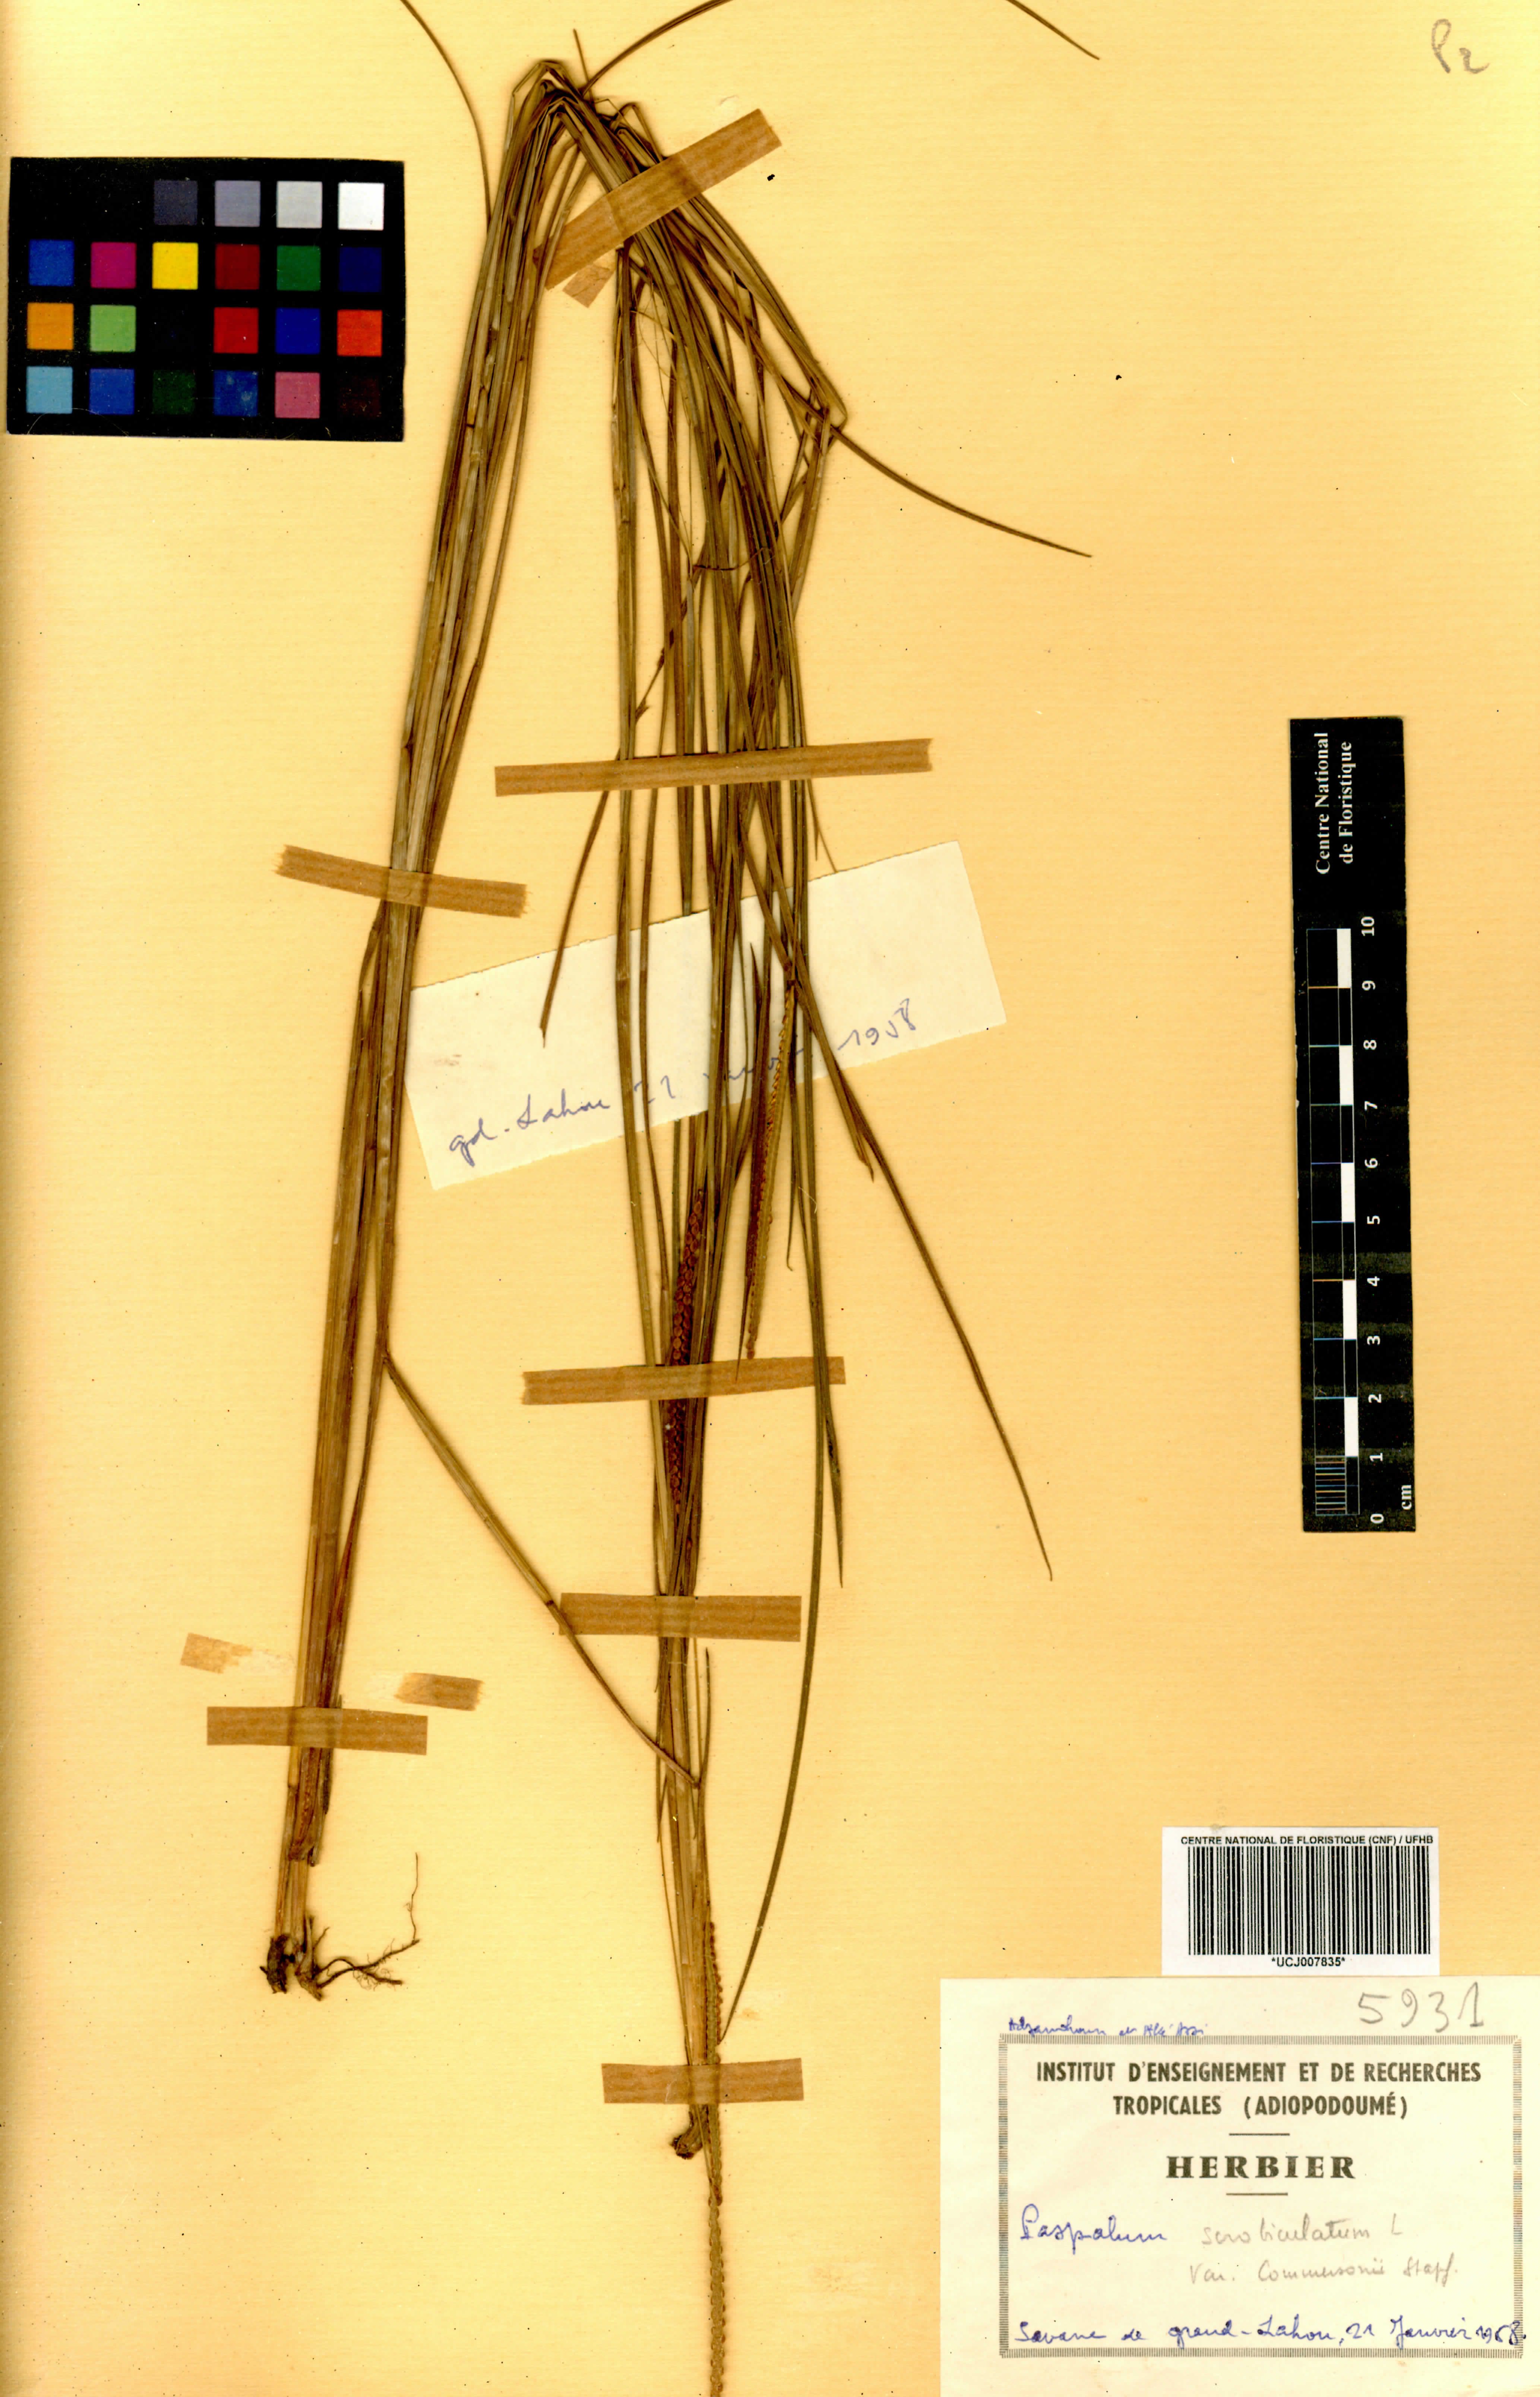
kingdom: Plantae
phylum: Tracheophyta
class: Liliopsida
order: Poales
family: Poaceae
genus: Paspalum
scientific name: Paspalum scrobiculatum
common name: Kodo millet
